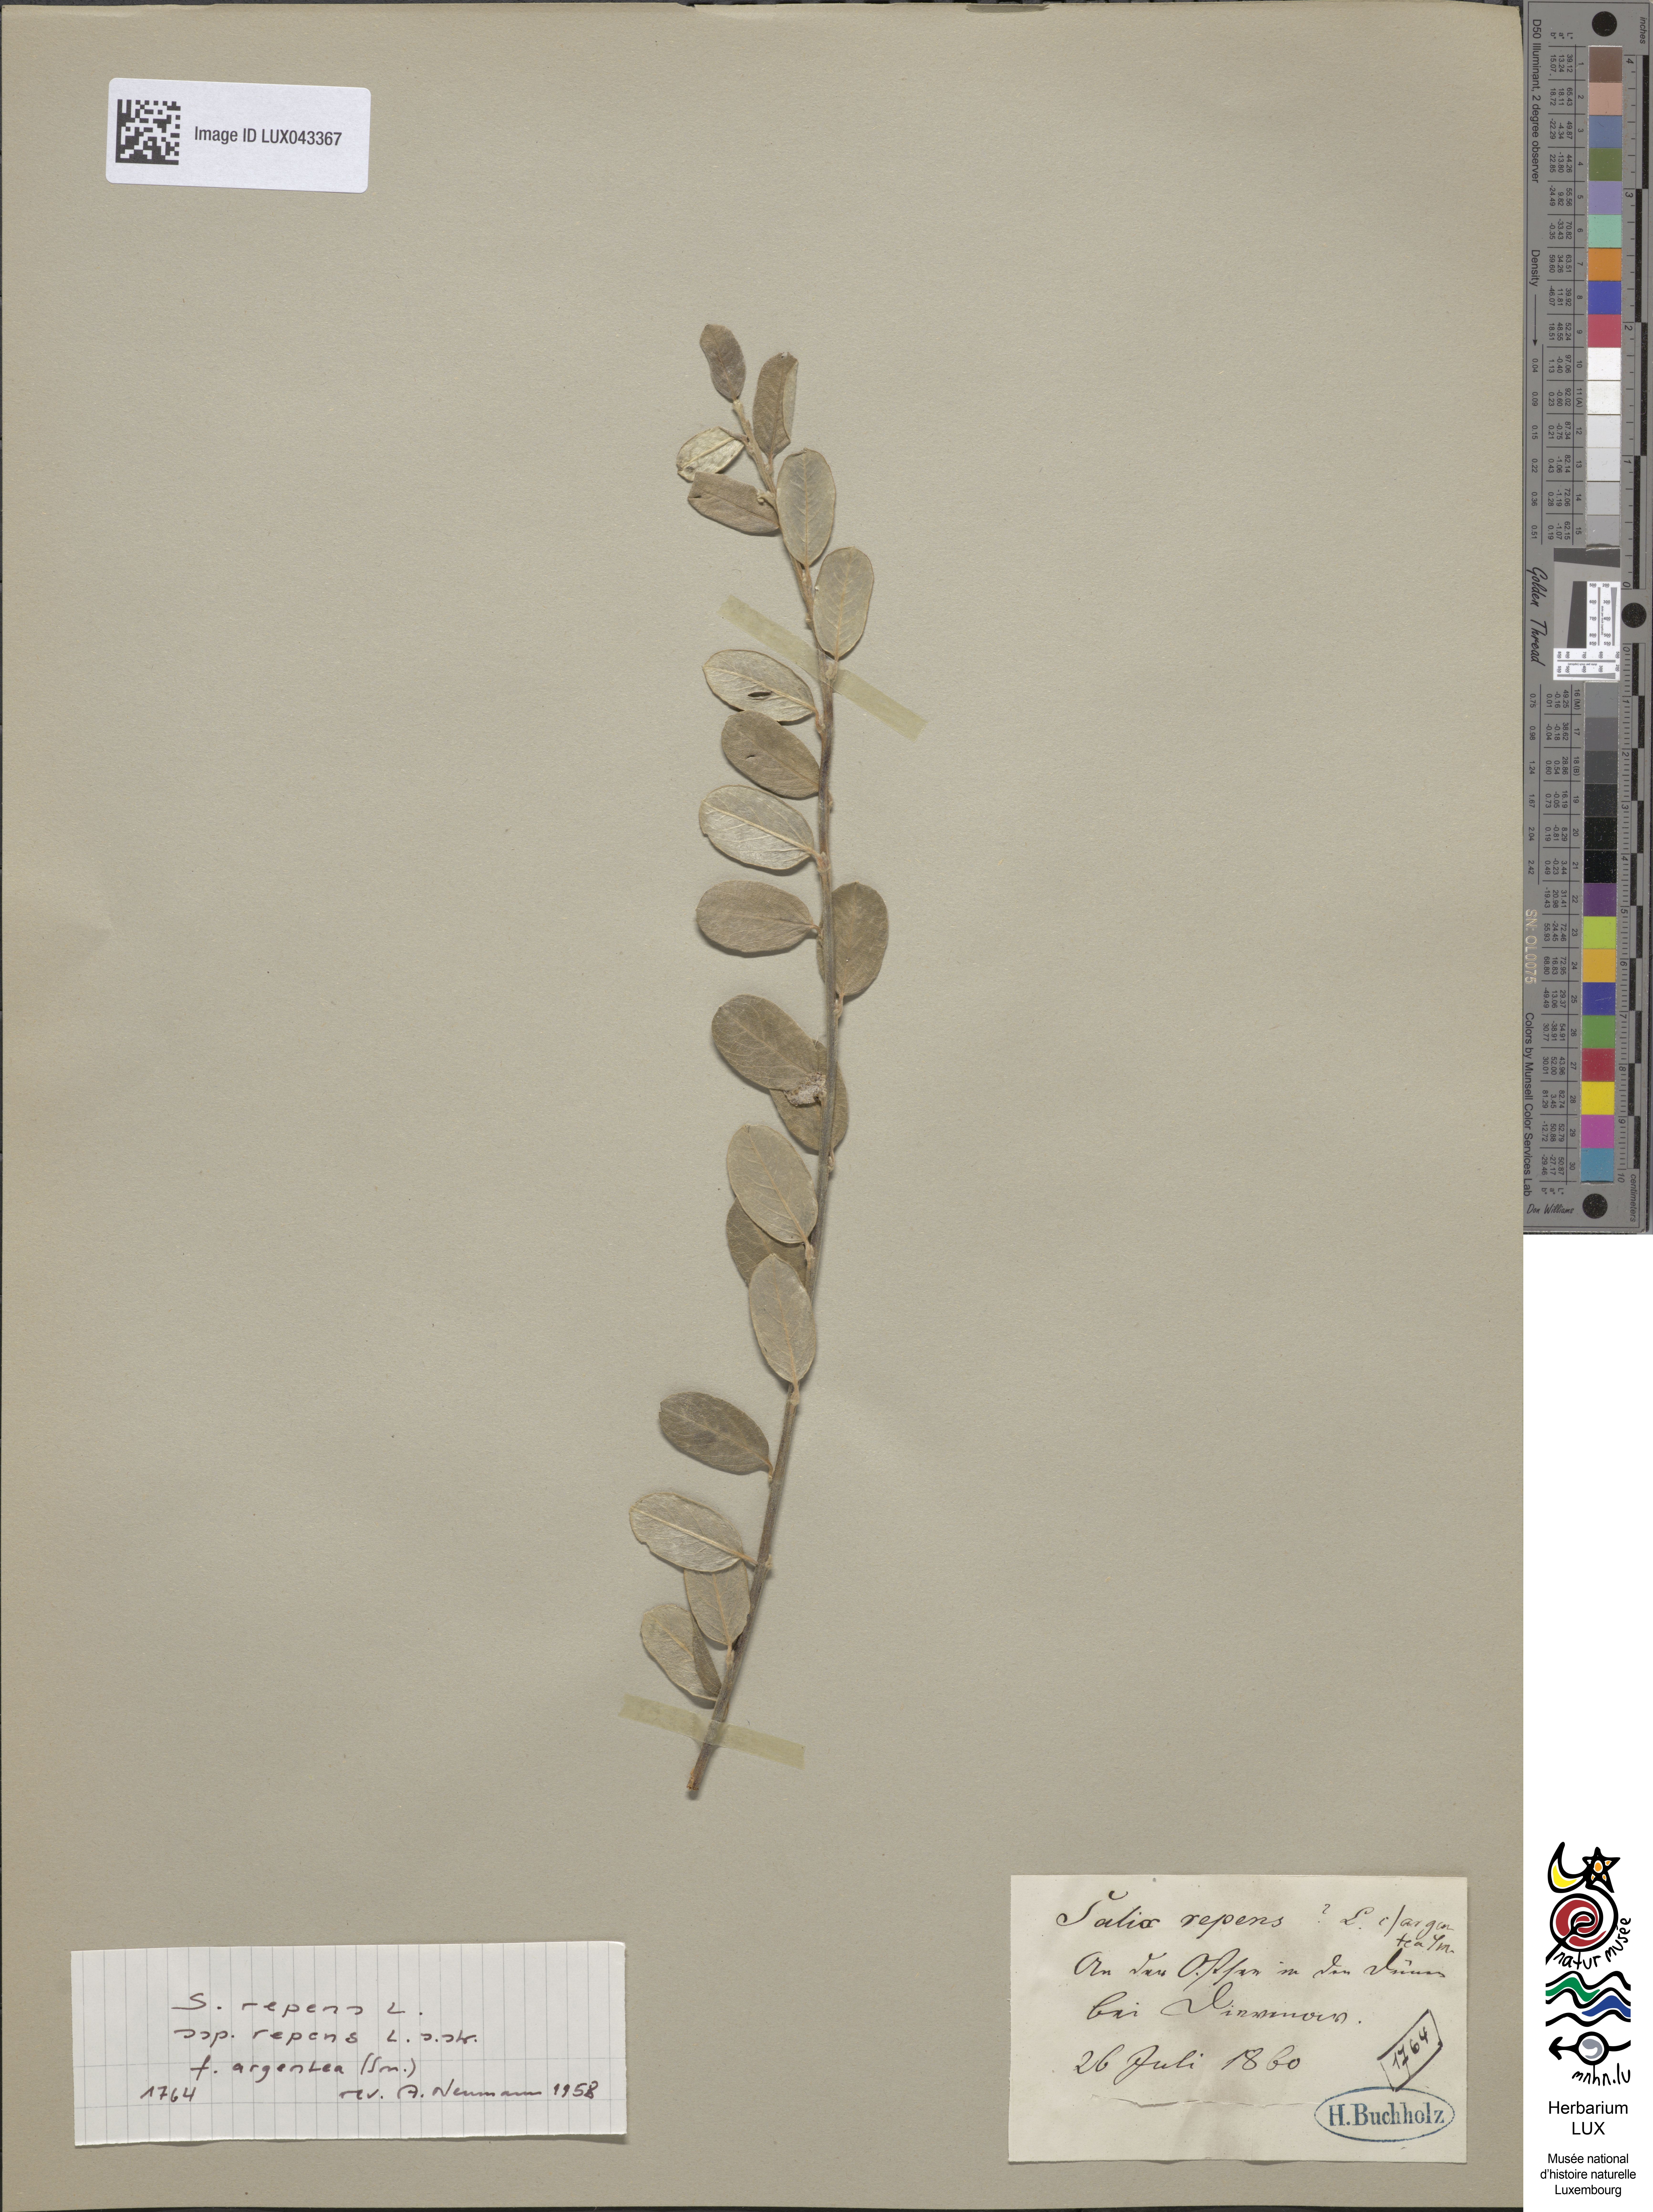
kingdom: Plantae
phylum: Tracheophyta
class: Magnoliopsida
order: Malpighiales
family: Salicaceae
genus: Salix
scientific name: Salix repens
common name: Creeping willow
